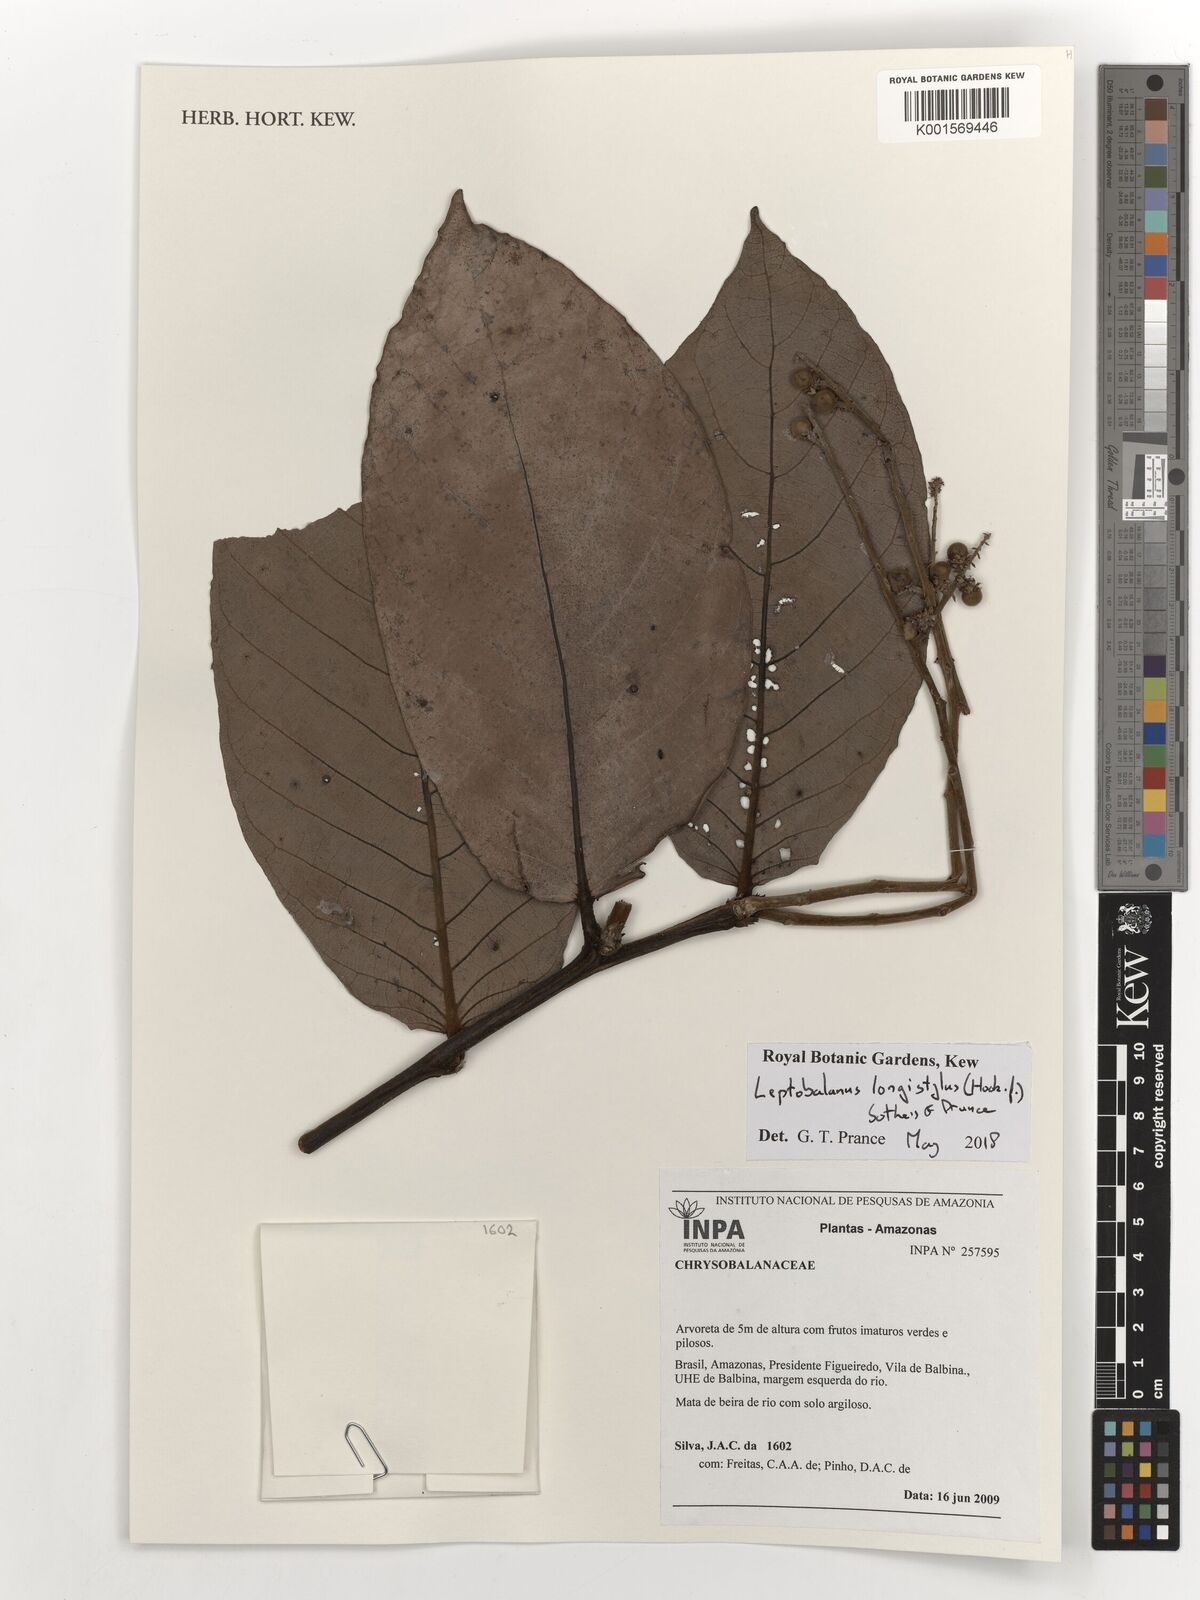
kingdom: Plantae
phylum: Tracheophyta
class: Magnoliopsida
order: Malpighiales
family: Chrysobalanaceae
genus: Leptobalanus
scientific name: Leptobalanus longistylus
